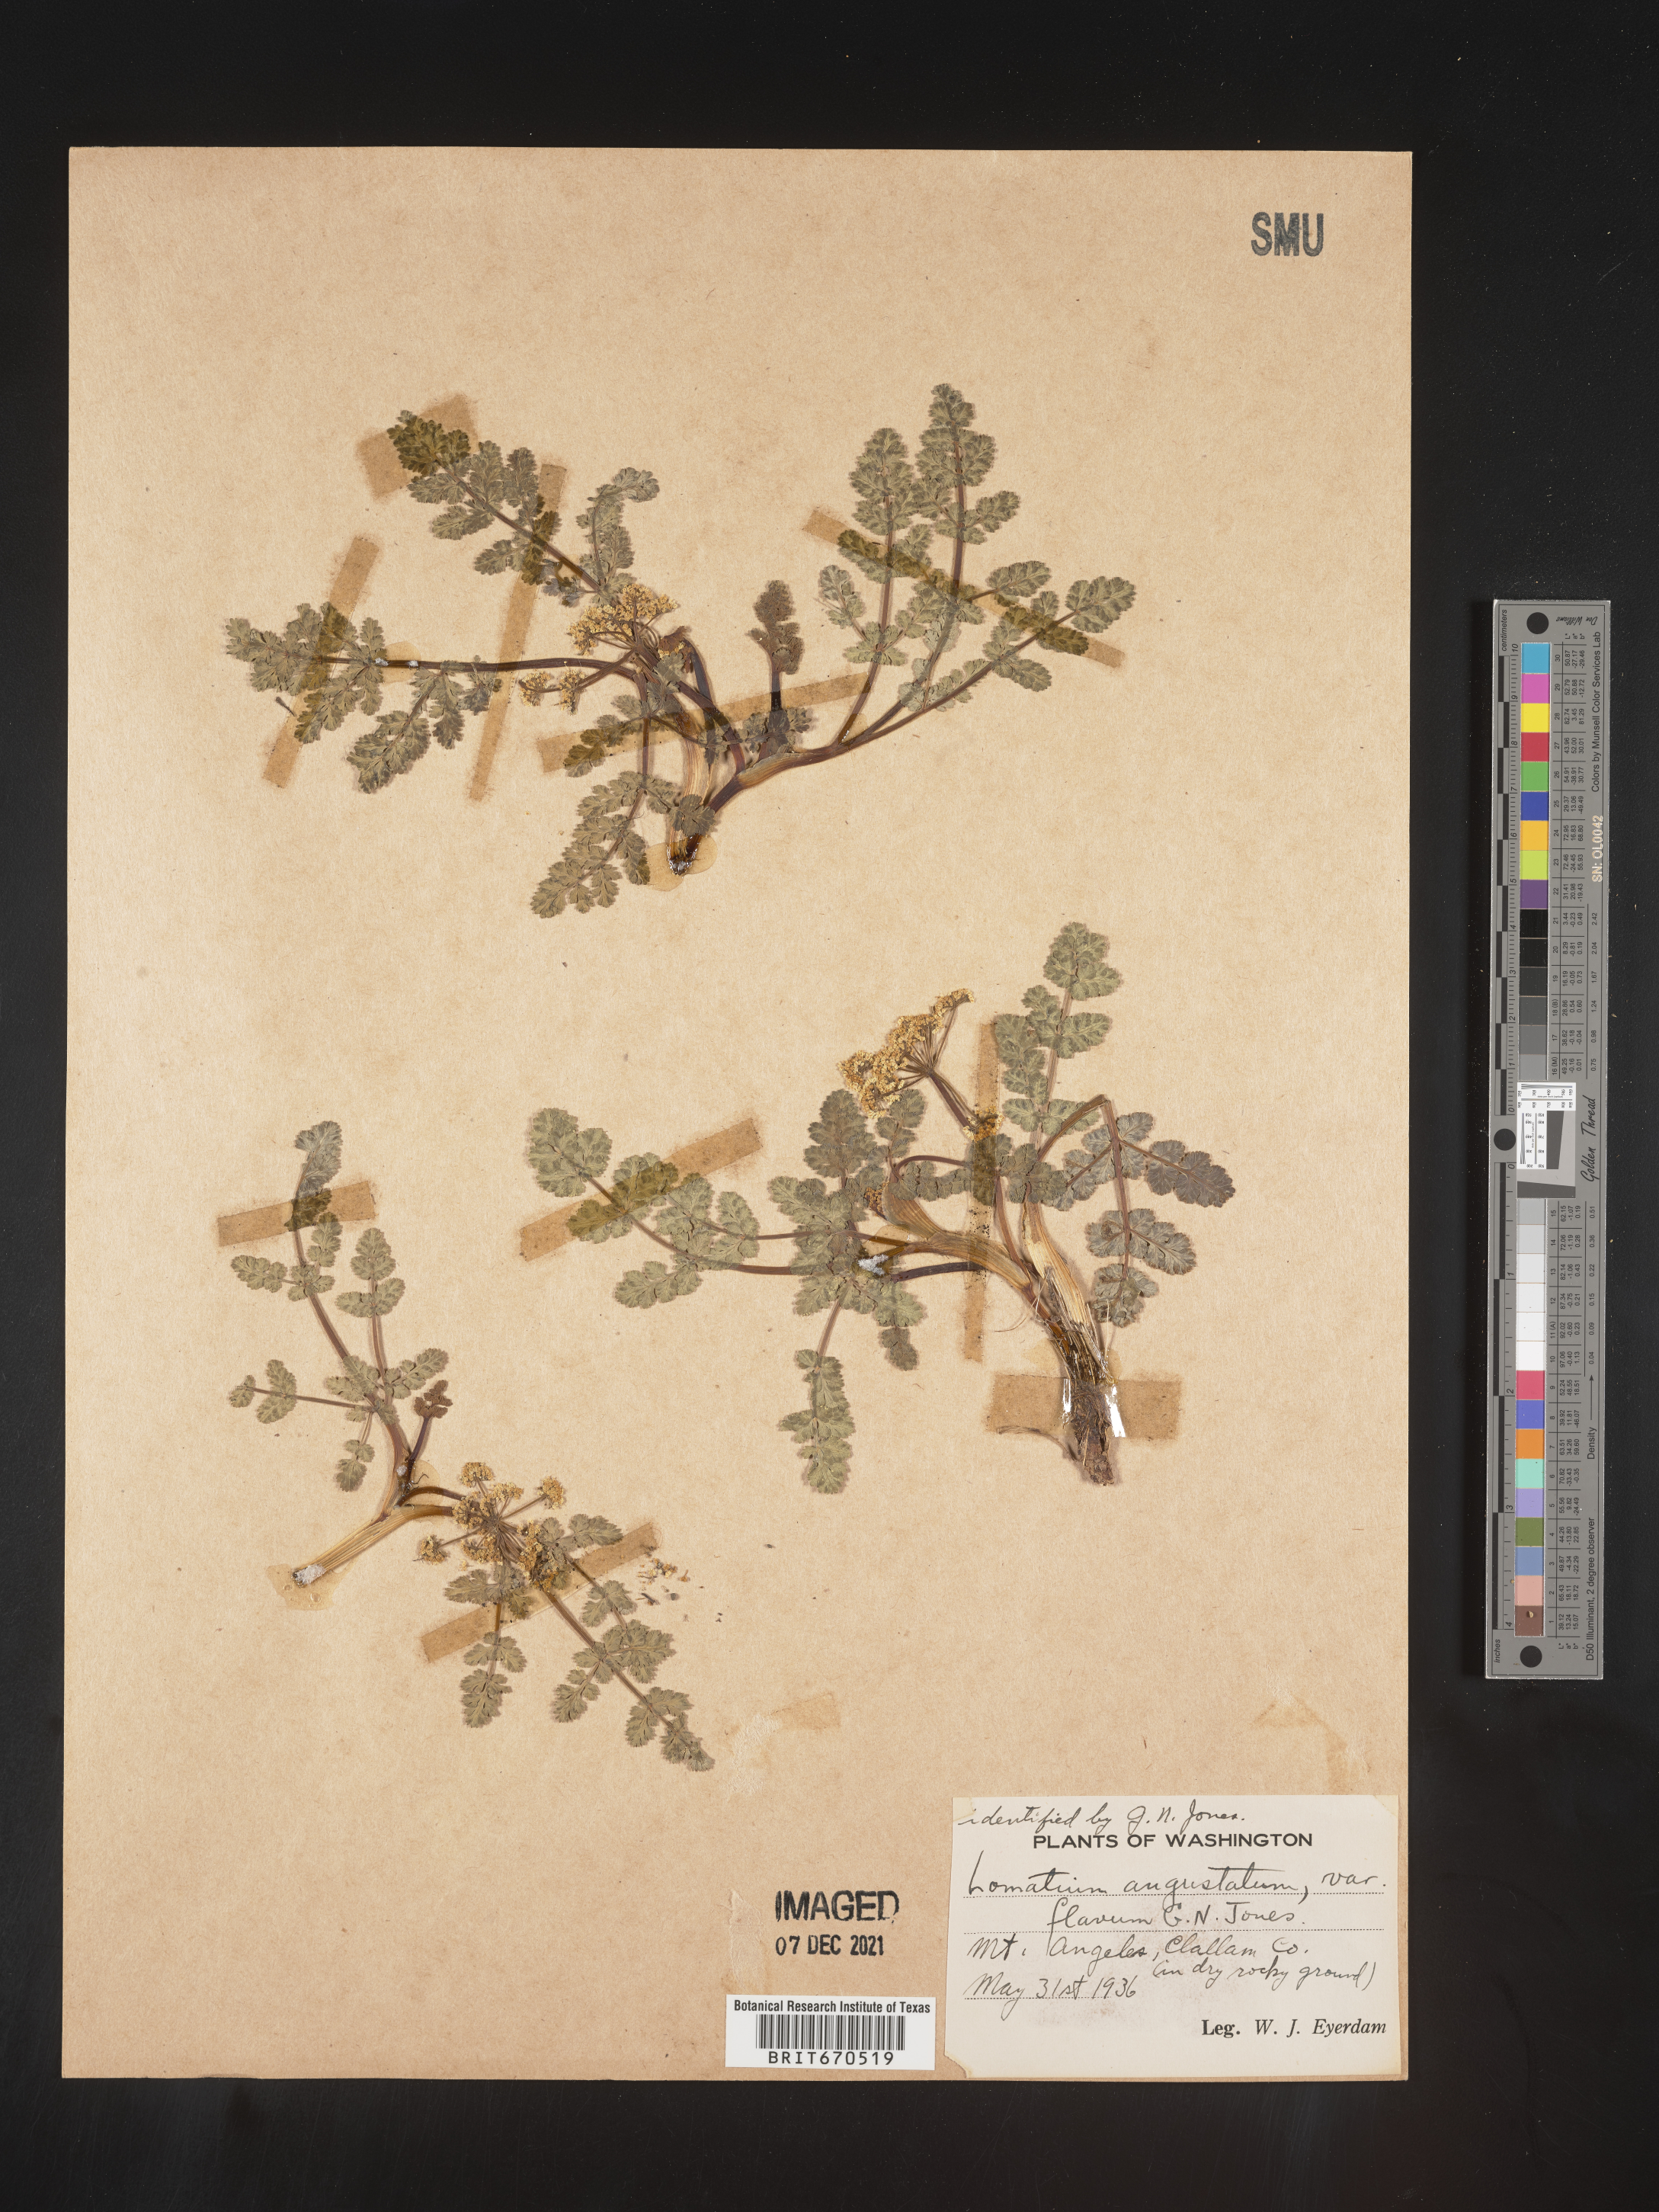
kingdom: Plantae
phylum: Tracheophyta
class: Magnoliopsida
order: Apiales
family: Apiaceae
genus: Lomatium
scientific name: Lomatium martindalei
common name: Cascade desert-parsley
